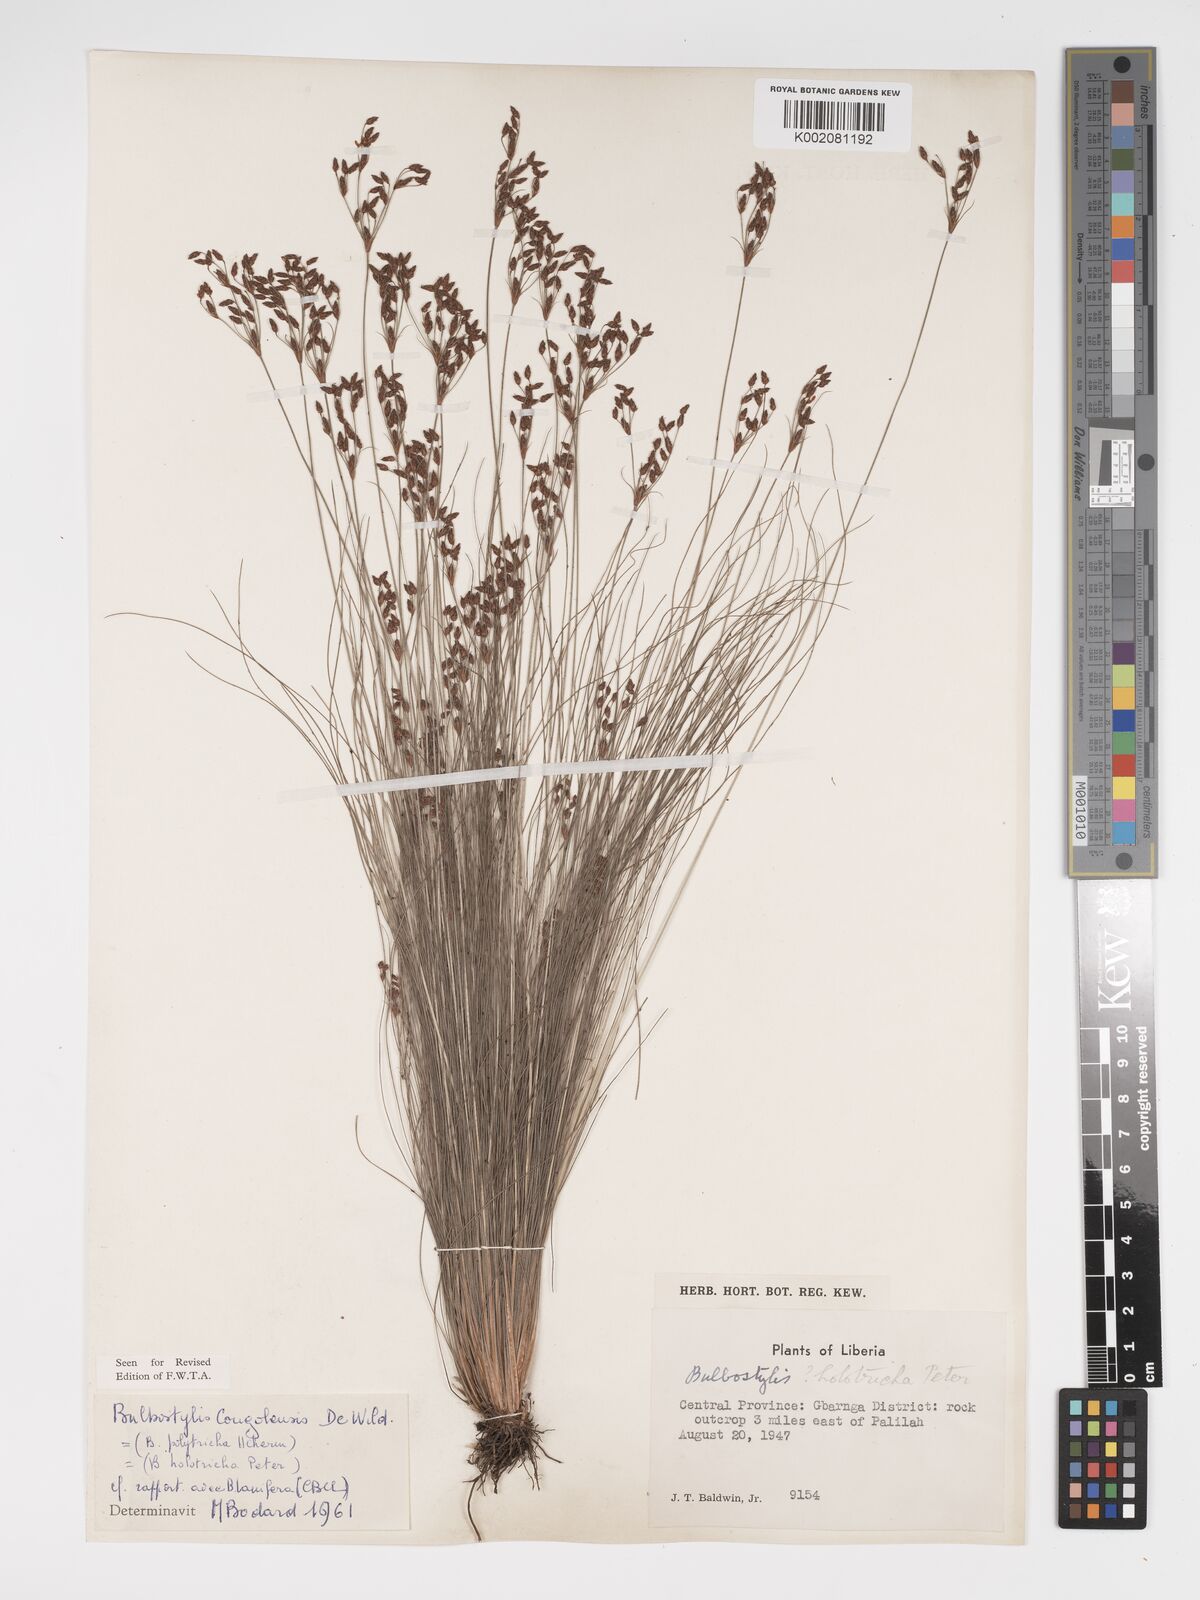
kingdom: Plantae
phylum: Tracheophyta
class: Liliopsida
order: Poales
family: Cyperaceae
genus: Bulbostylis
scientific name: Bulbostylis congolensis
